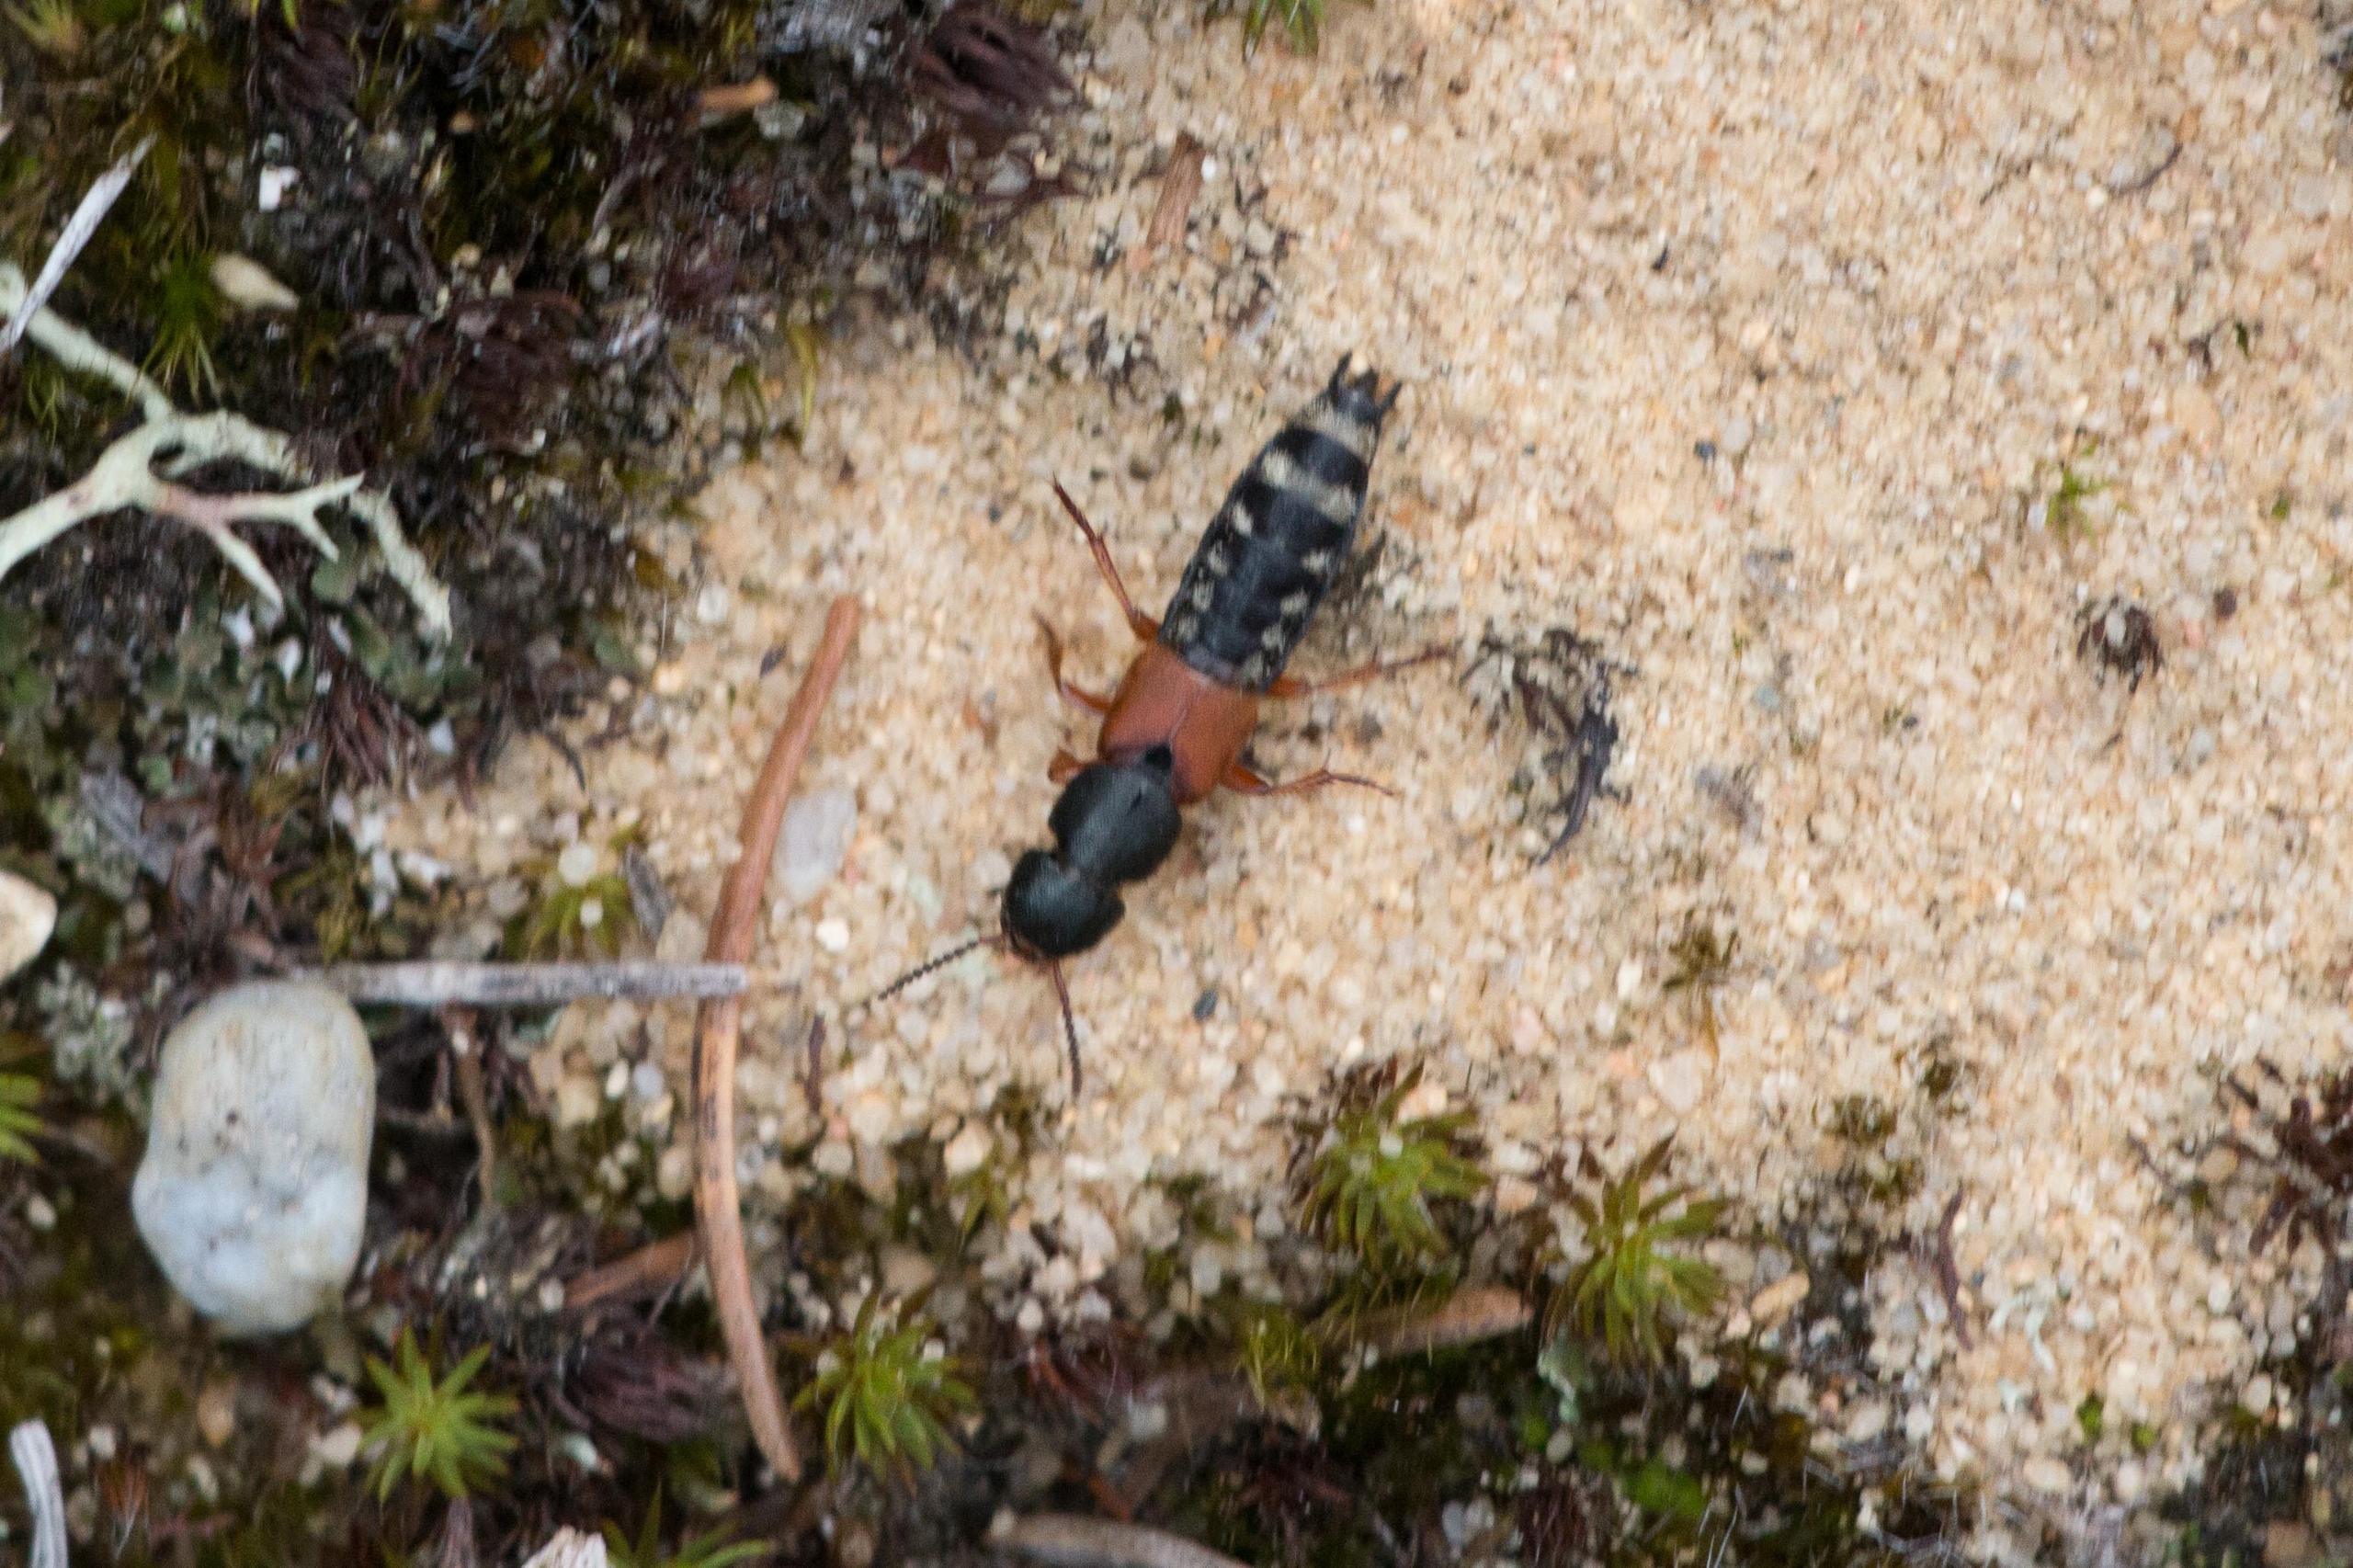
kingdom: Animalia
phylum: Arthropoda
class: Insecta
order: Coleoptera
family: Staphylinidae
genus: Platydracus
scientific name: Platydracus stercorarius
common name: Almindelig guldpletrovbille
